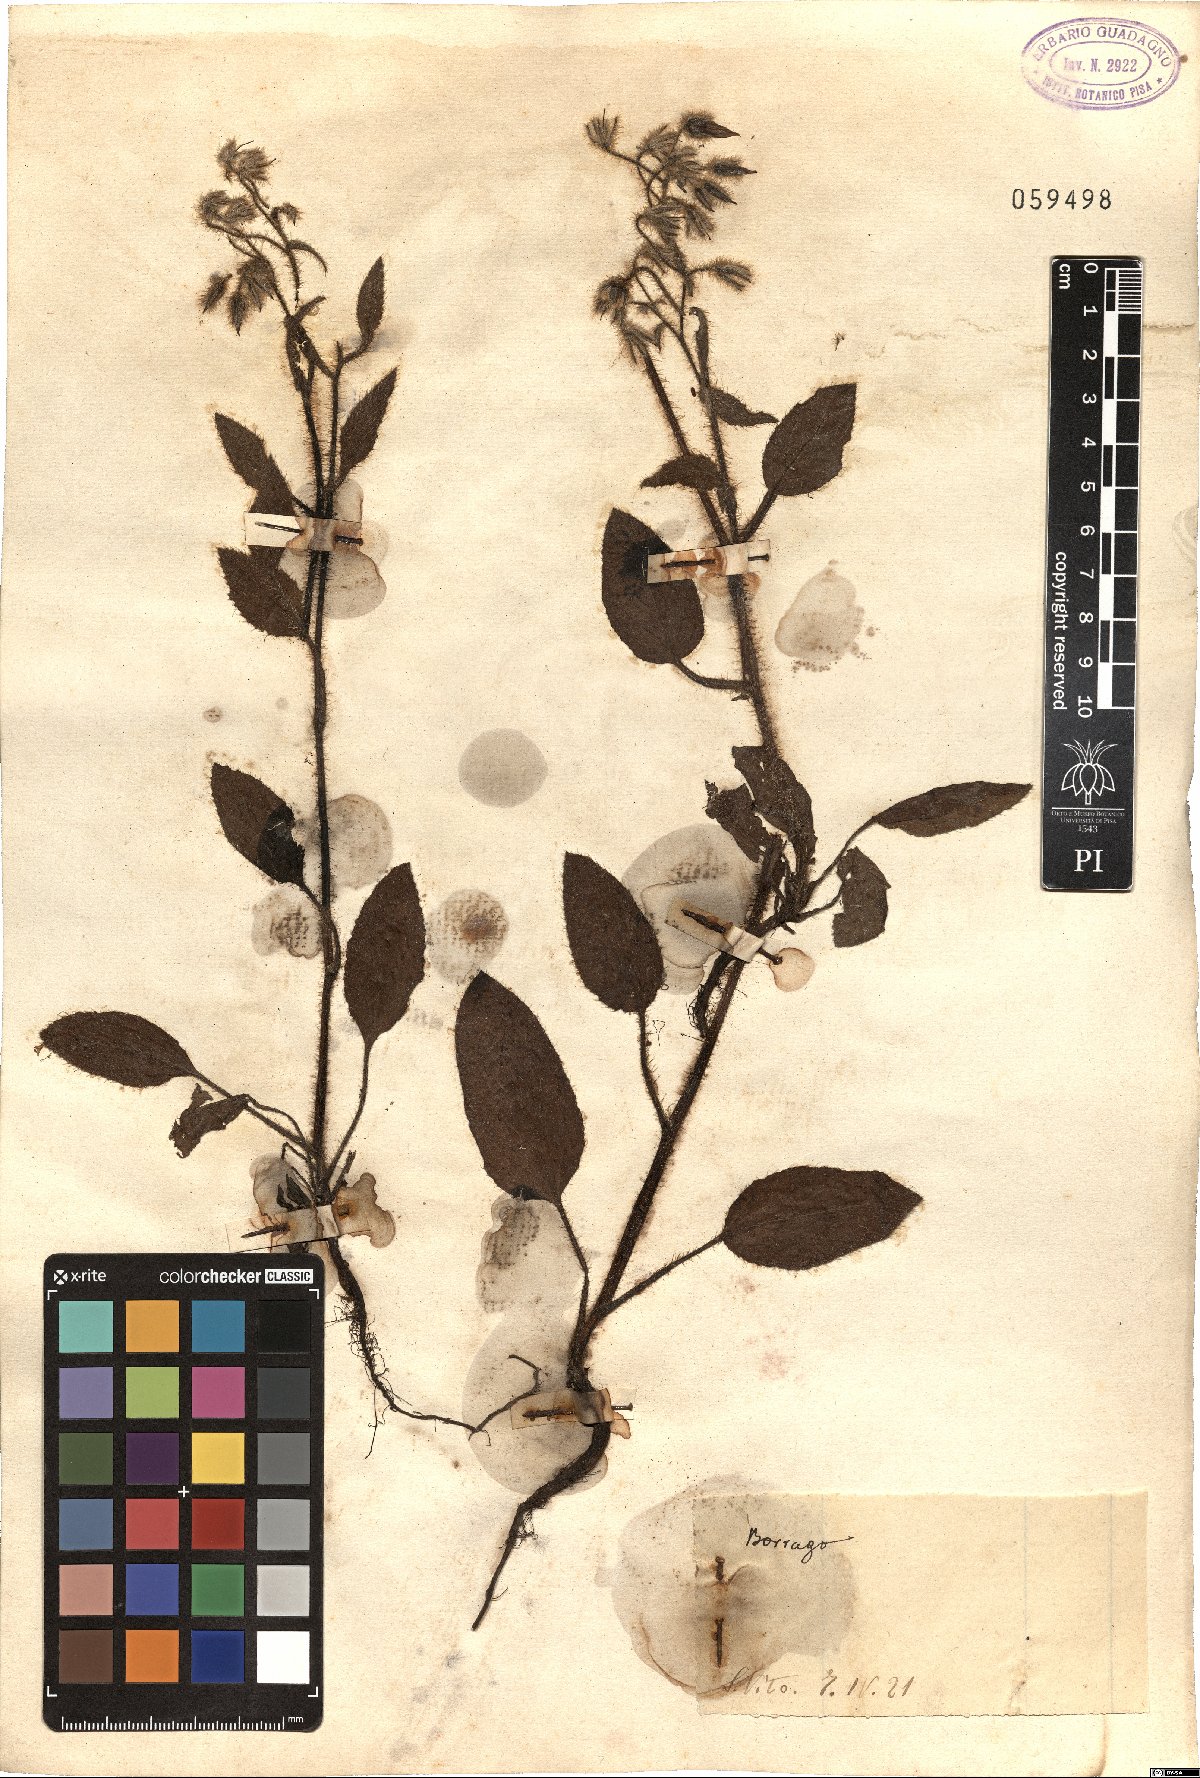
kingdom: Plantae
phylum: Tracheophyta
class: Magnoliopsida
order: Boraginales
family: Boraginaceae
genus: Borago
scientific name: Borago
